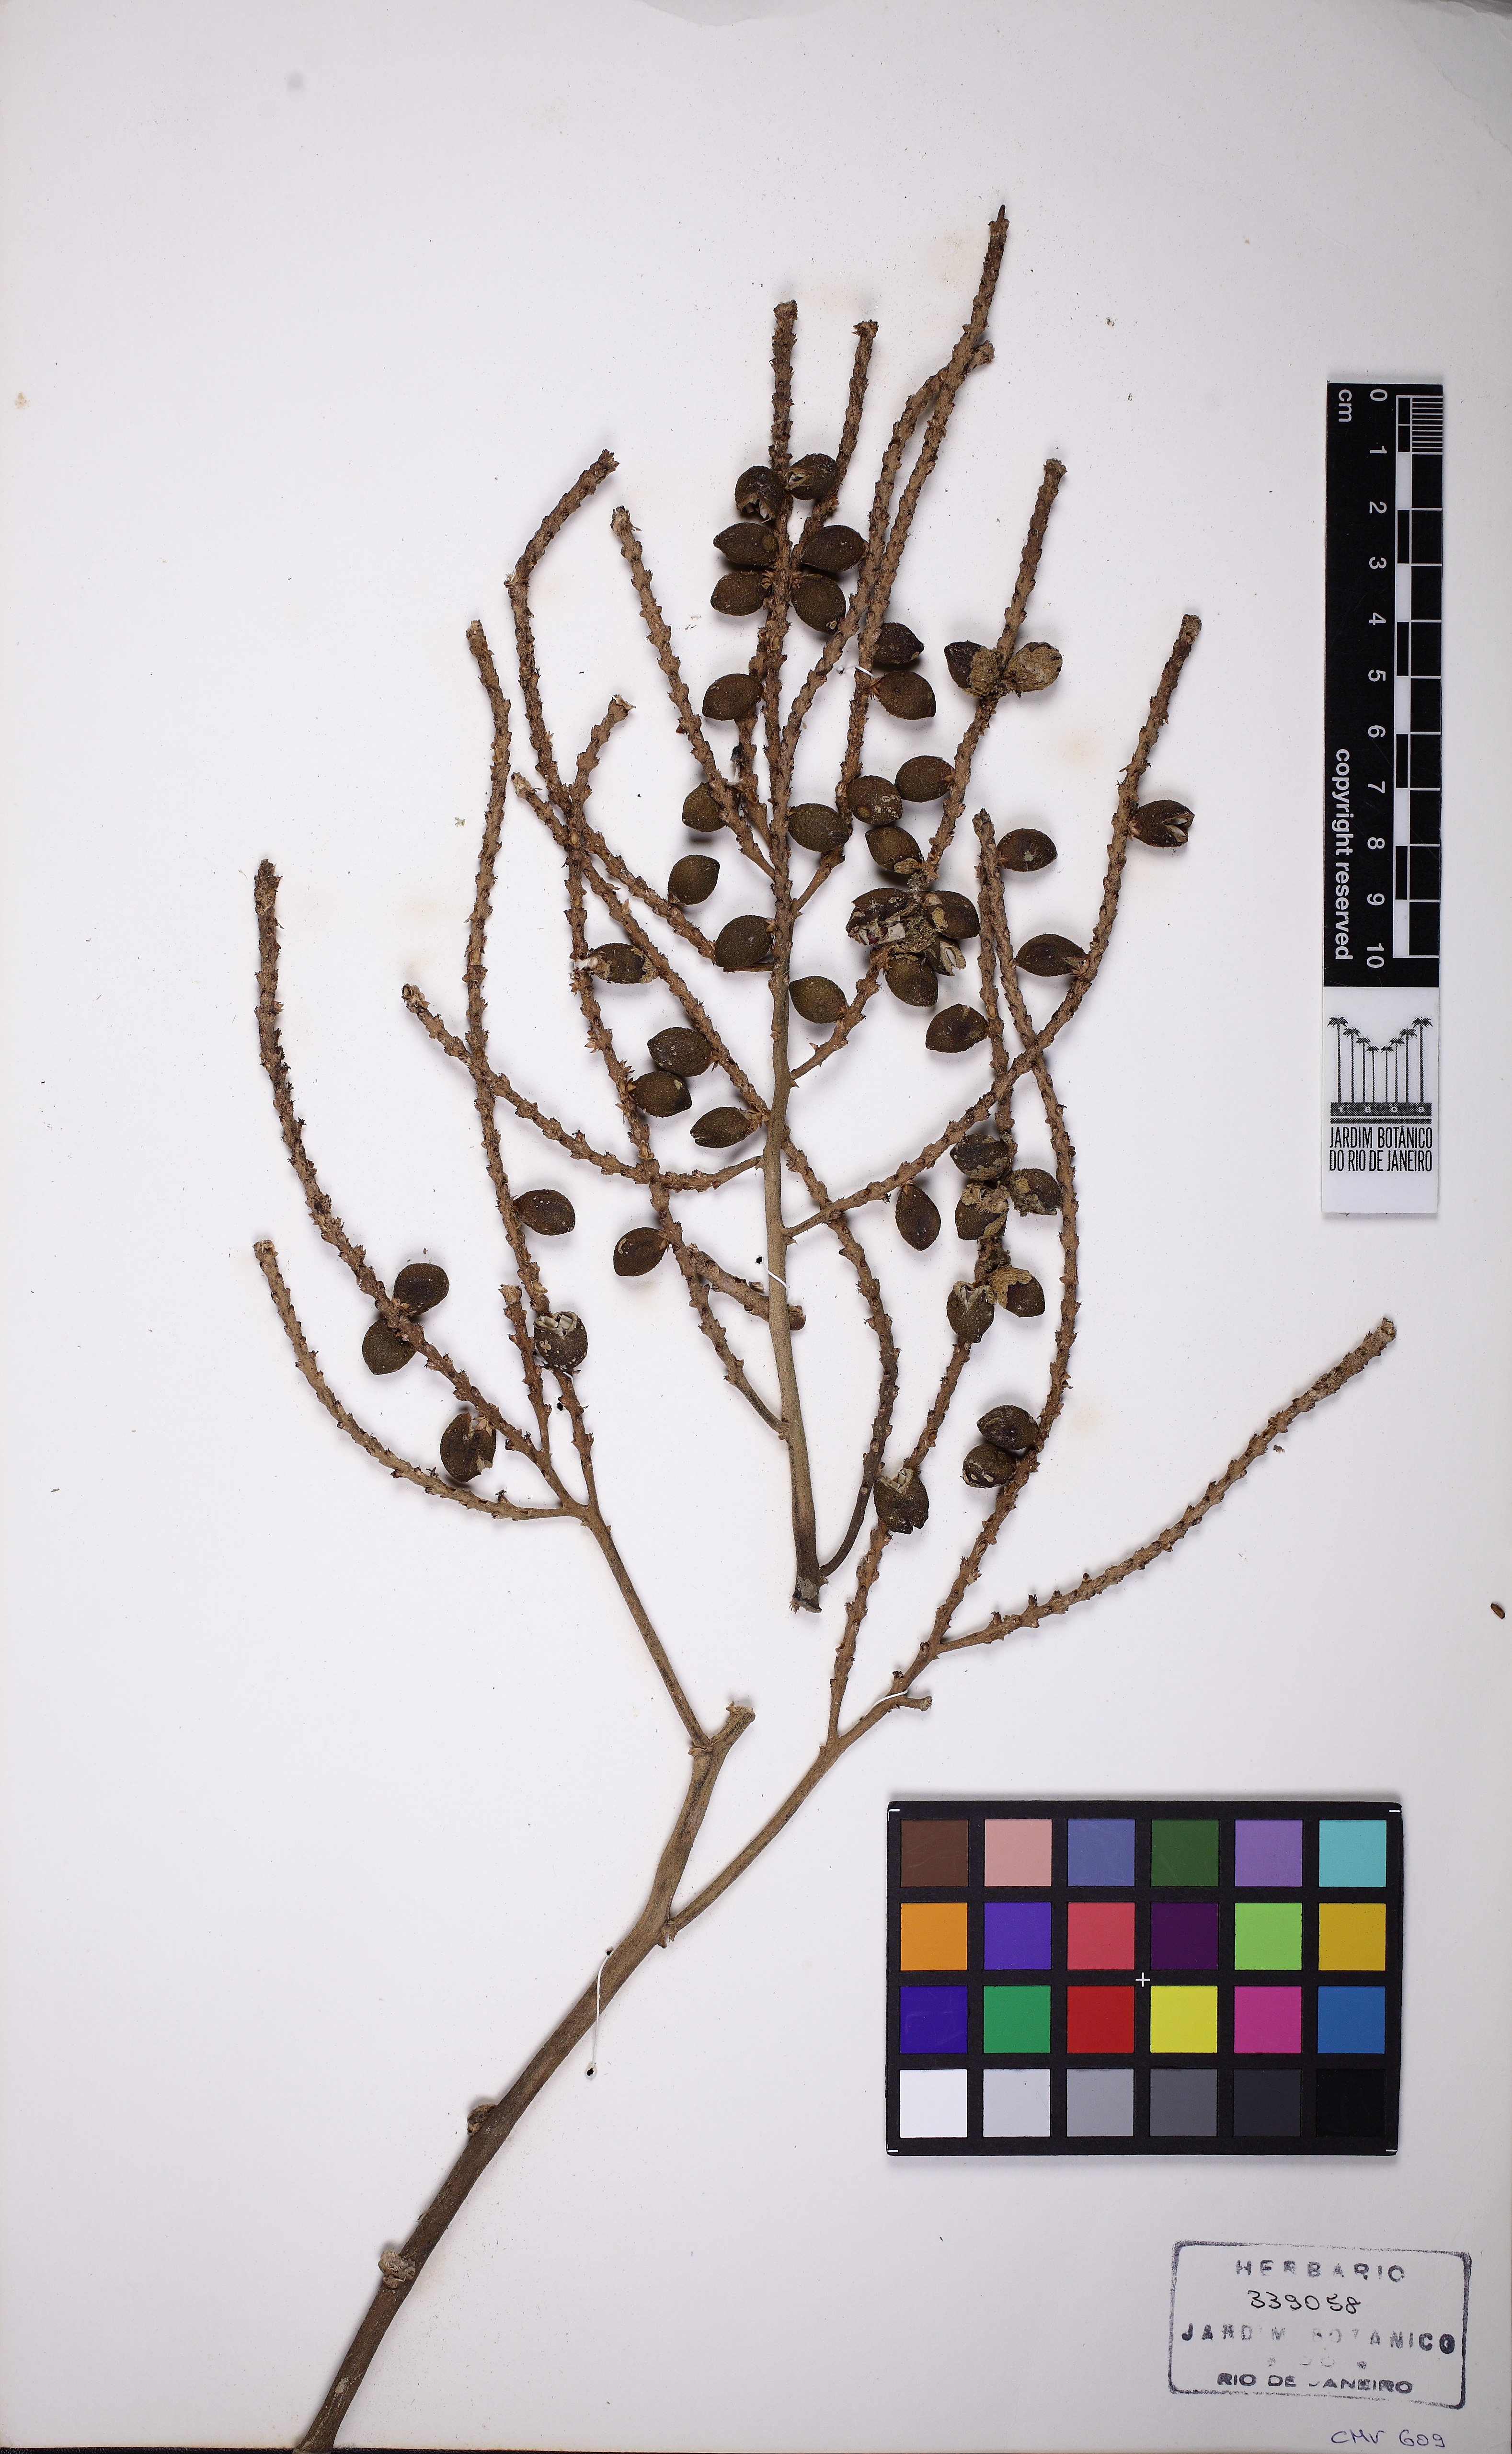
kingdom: Plantae
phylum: Tracheophyta
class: Liliopsida
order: Arecales
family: Arecaceae
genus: Geonoma
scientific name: Geonoma pohliana
